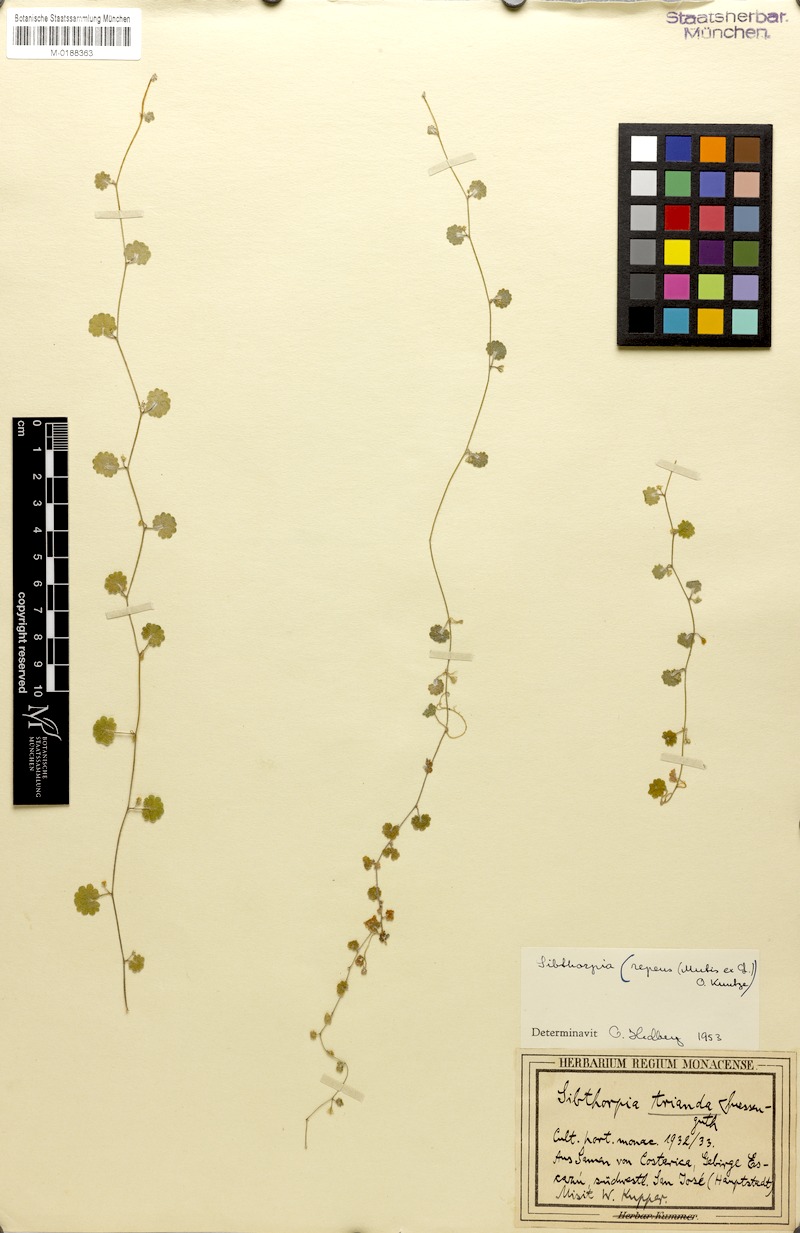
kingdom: Plantae
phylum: Tracheophyta
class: Magnoliopsida
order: Lamiales
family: Plantaginaceae
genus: Sibthorpia
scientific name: Sibthorpia repens
